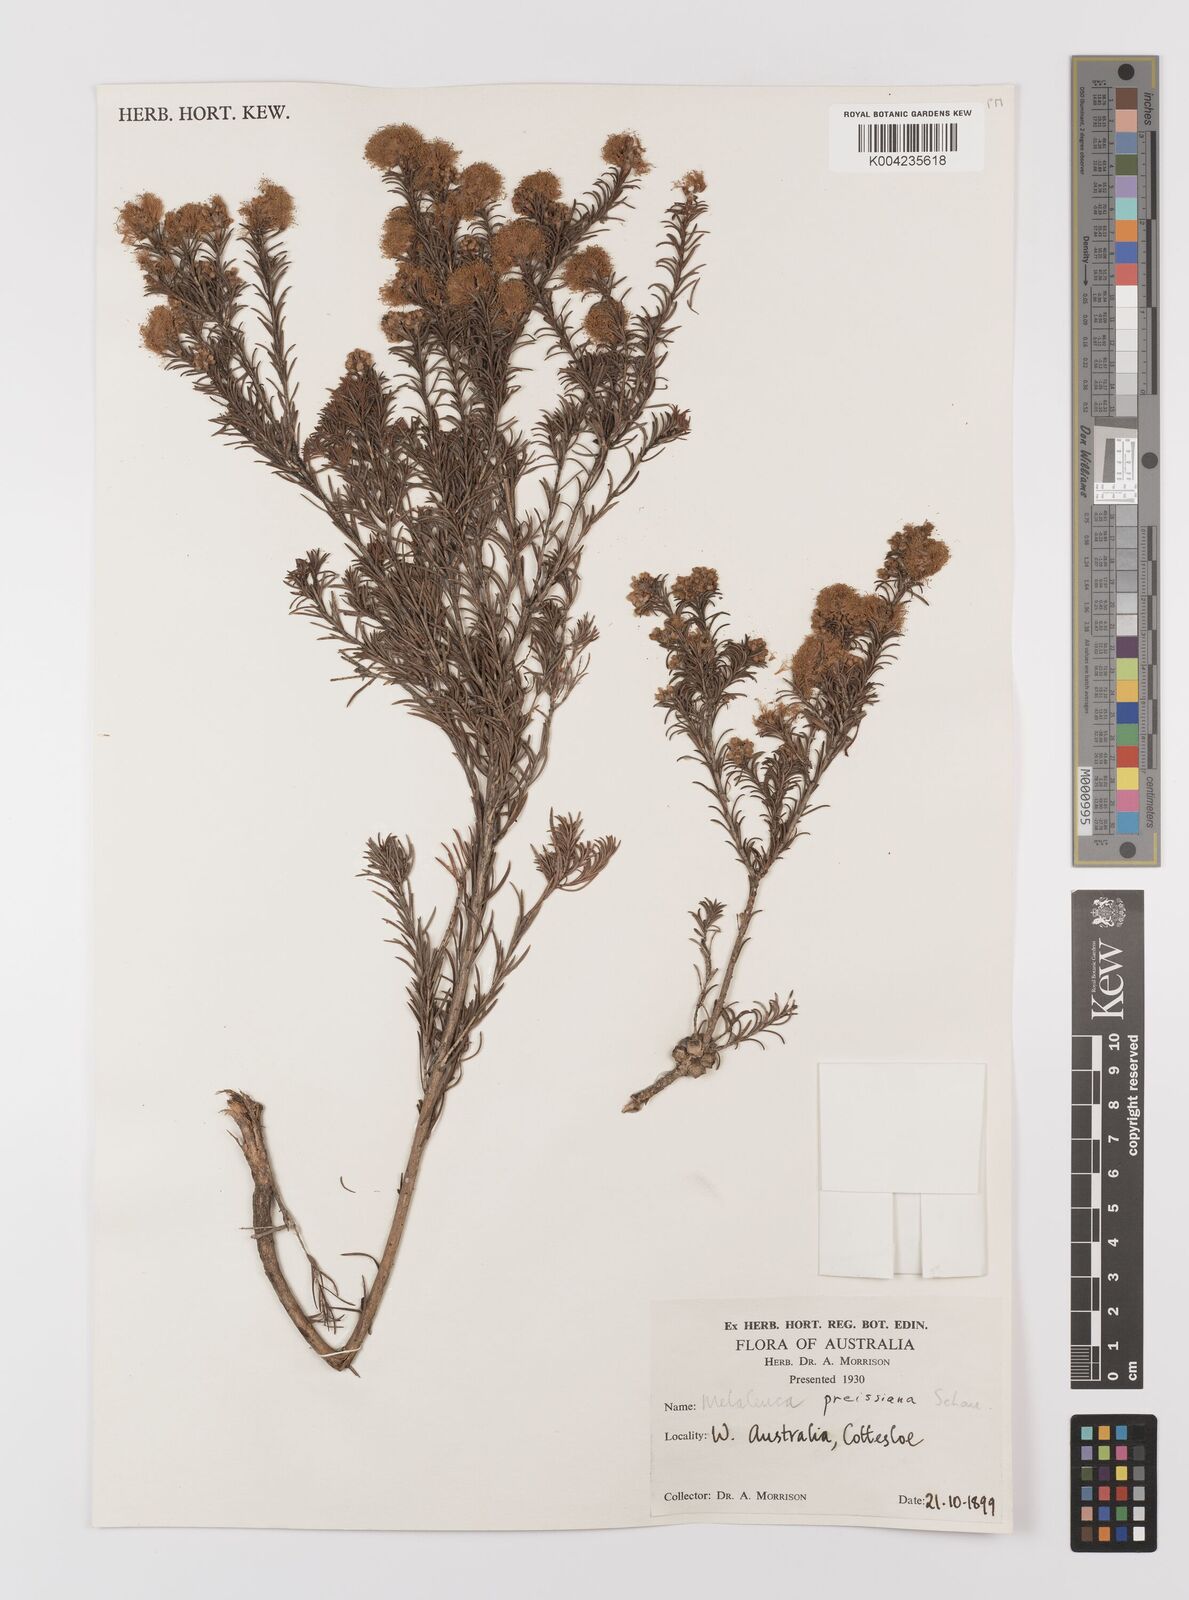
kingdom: Plantae
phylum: Tracheophyta
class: Magnoliopsida
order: Myrtales
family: Myrtaceae
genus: Melaleuca
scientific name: Melaleuca preissiana
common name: Preiss's paperbark
